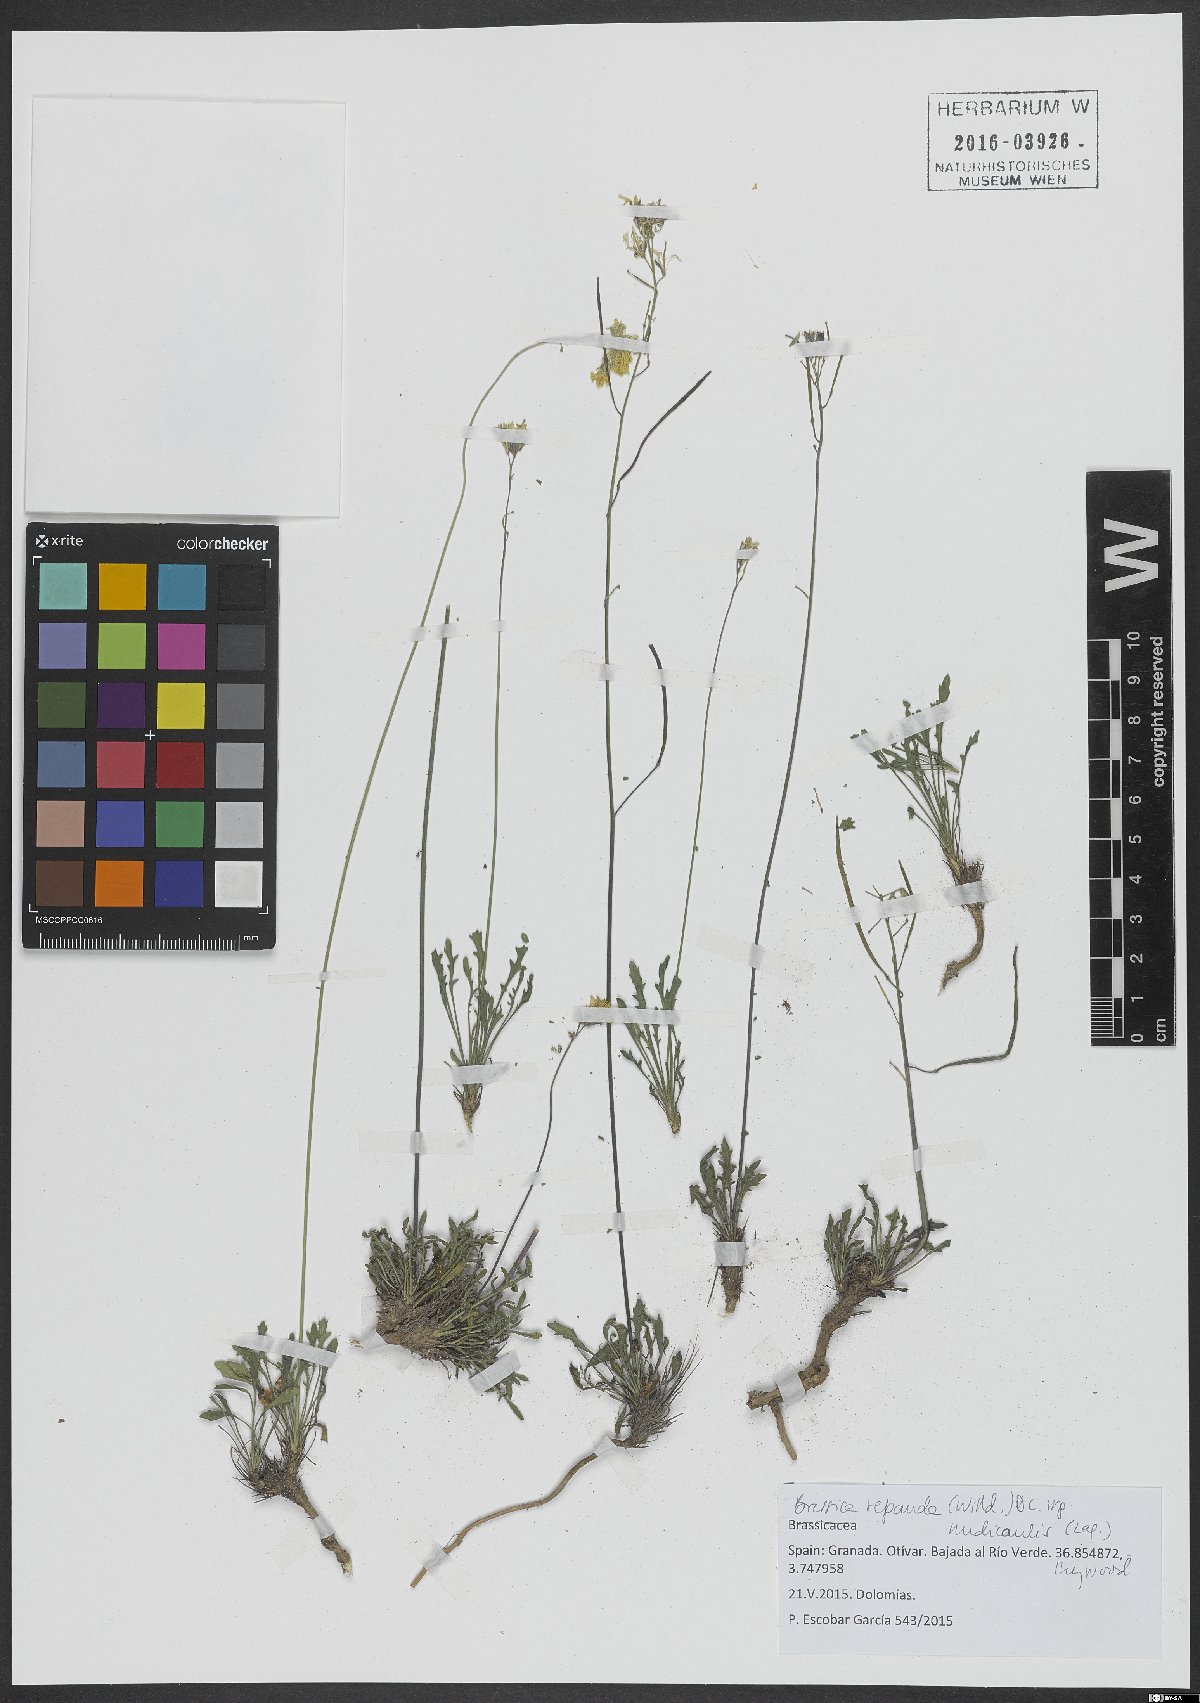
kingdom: Plantae
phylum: Tracheophyta
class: Magnoliopsida
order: Brassicales
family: Brassicaceae
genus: Brassica
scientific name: Brassica repanda
